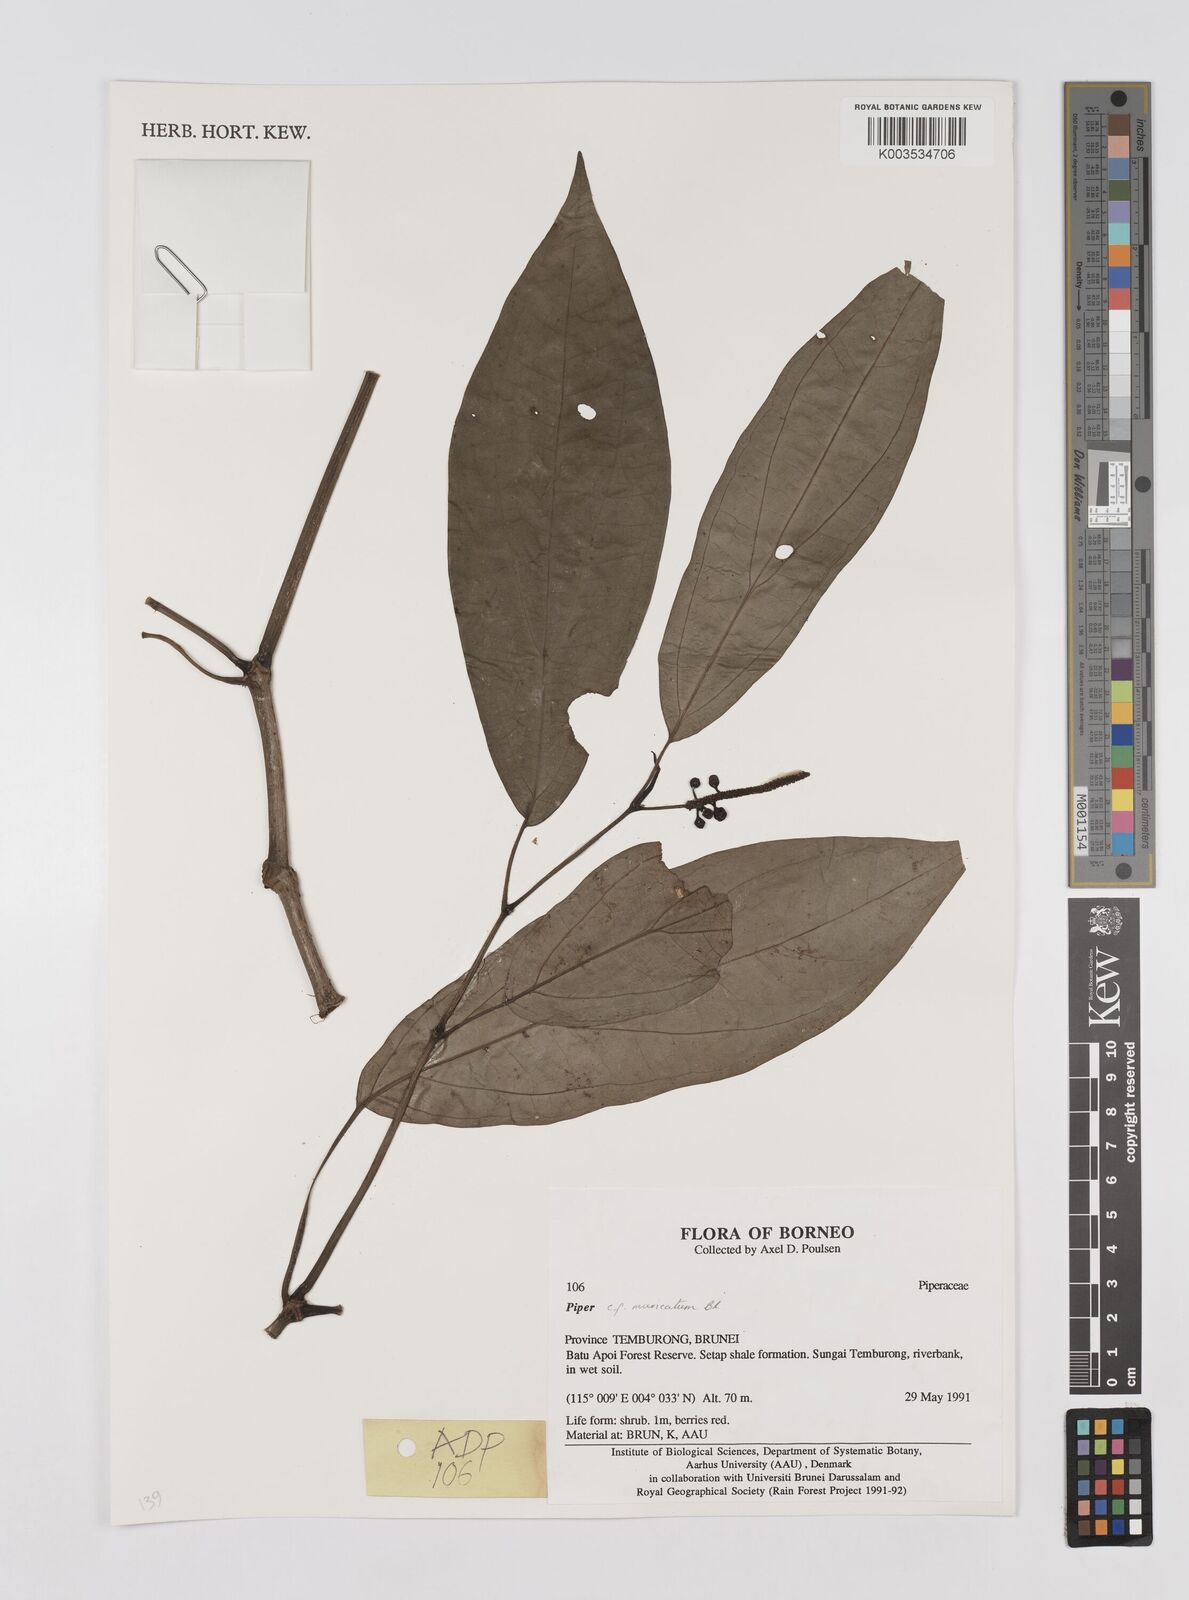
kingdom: Plantae
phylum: Tracheophyta
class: Magnoliopsida
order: Piperales
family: Piperaceae
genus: Piper
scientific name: Piper muricatum
